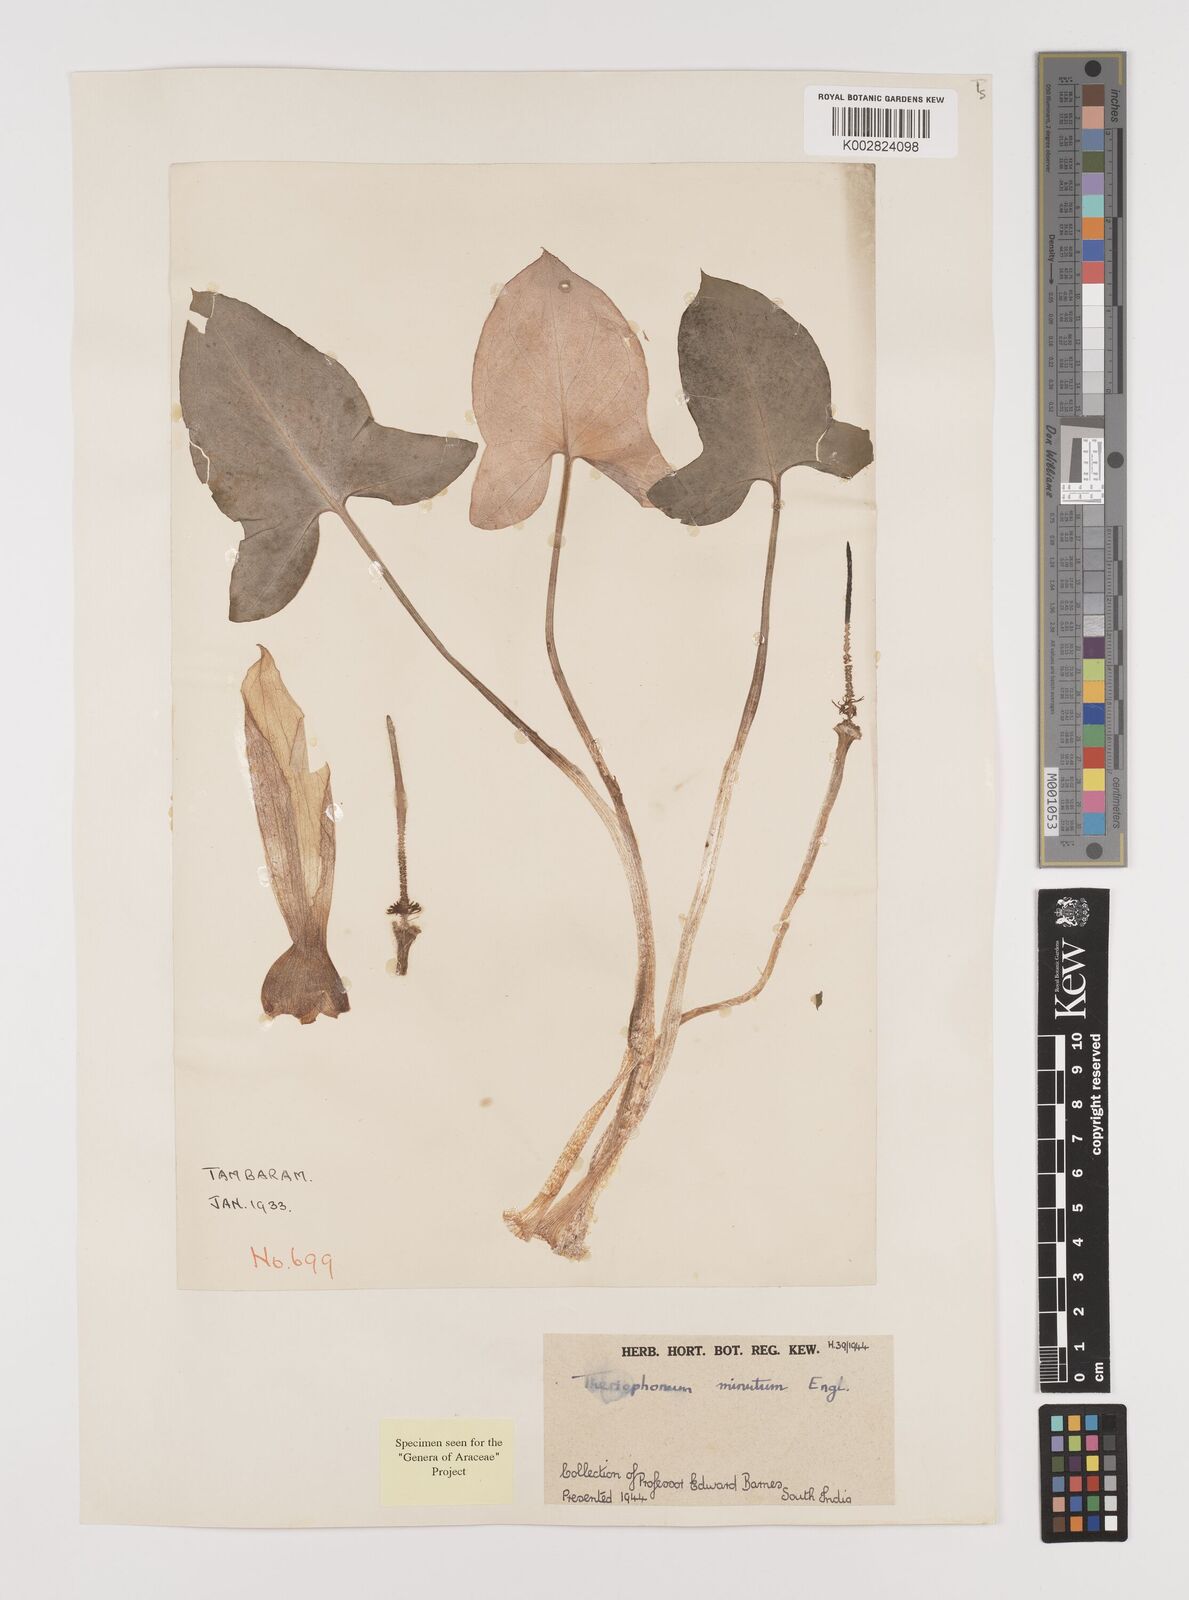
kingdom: Plantae
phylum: Tracheophyta
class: Liliopsida
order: Alismatales
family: Araceae
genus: Theriophonum
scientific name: Theriophonum minutum
